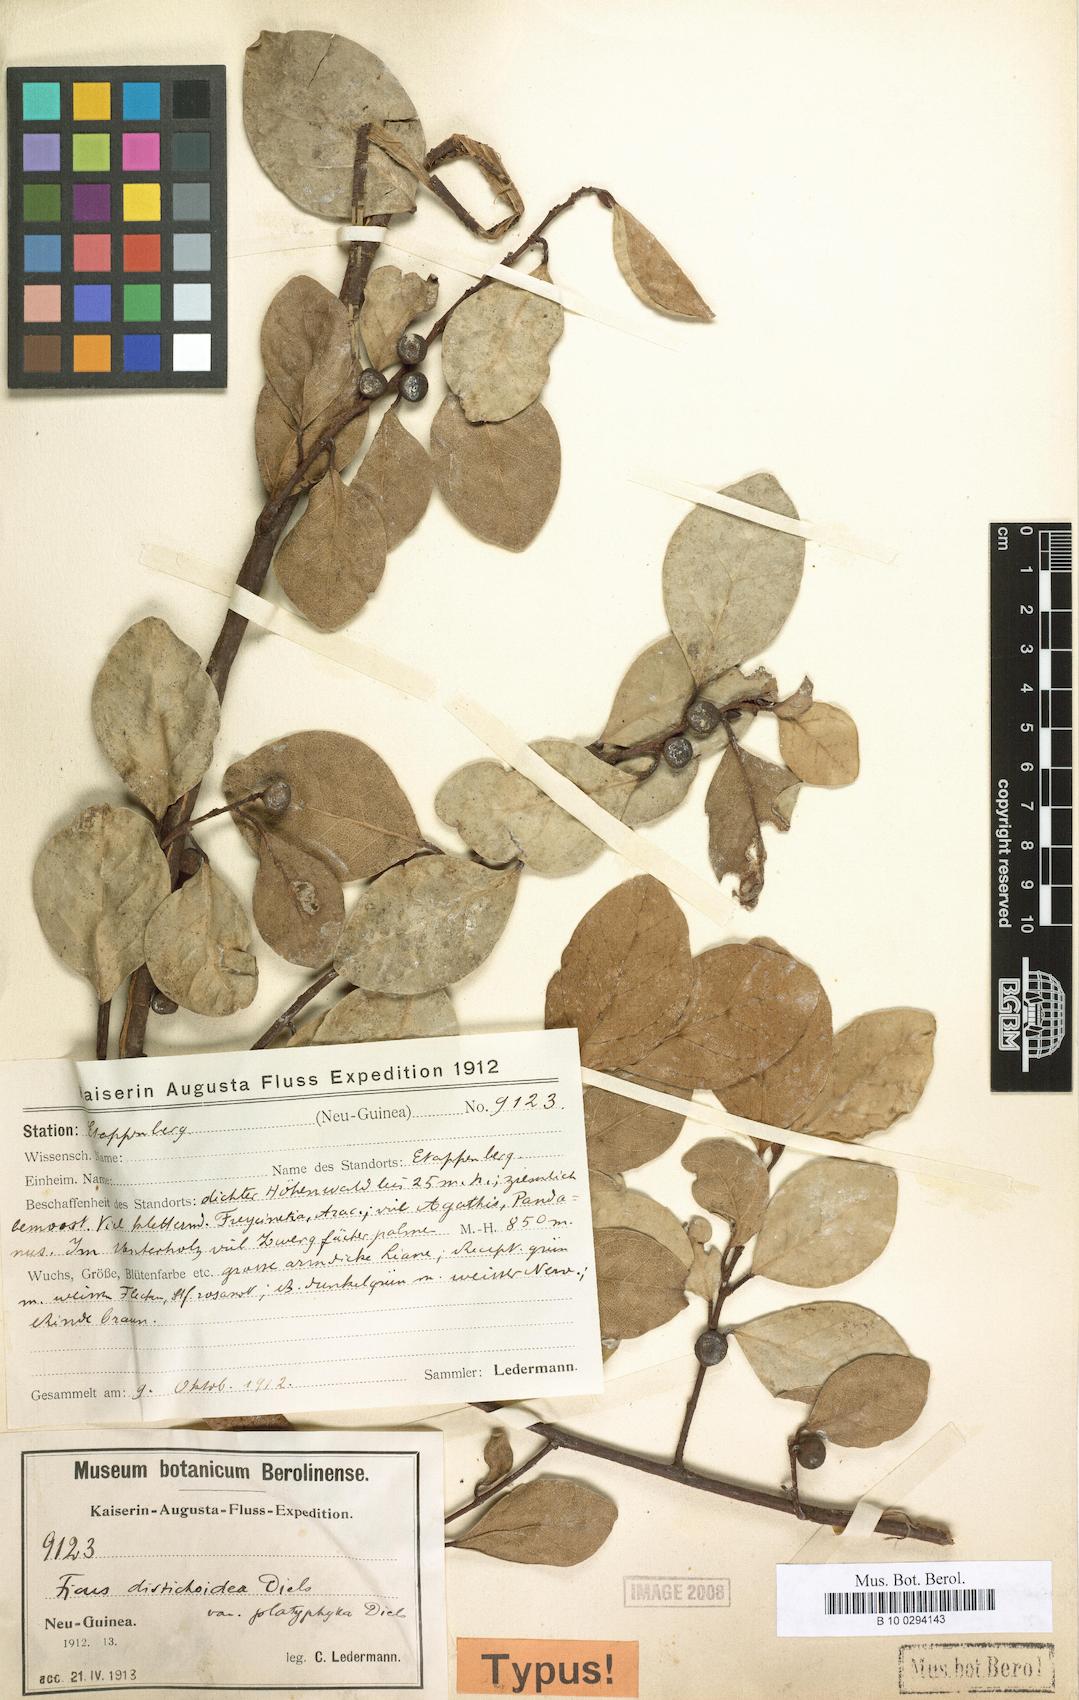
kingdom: Plantae
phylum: Tracheophyta
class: Magnoliopsida
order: Rosales
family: Moraceae
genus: Ficus
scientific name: Ficus distichoidea
